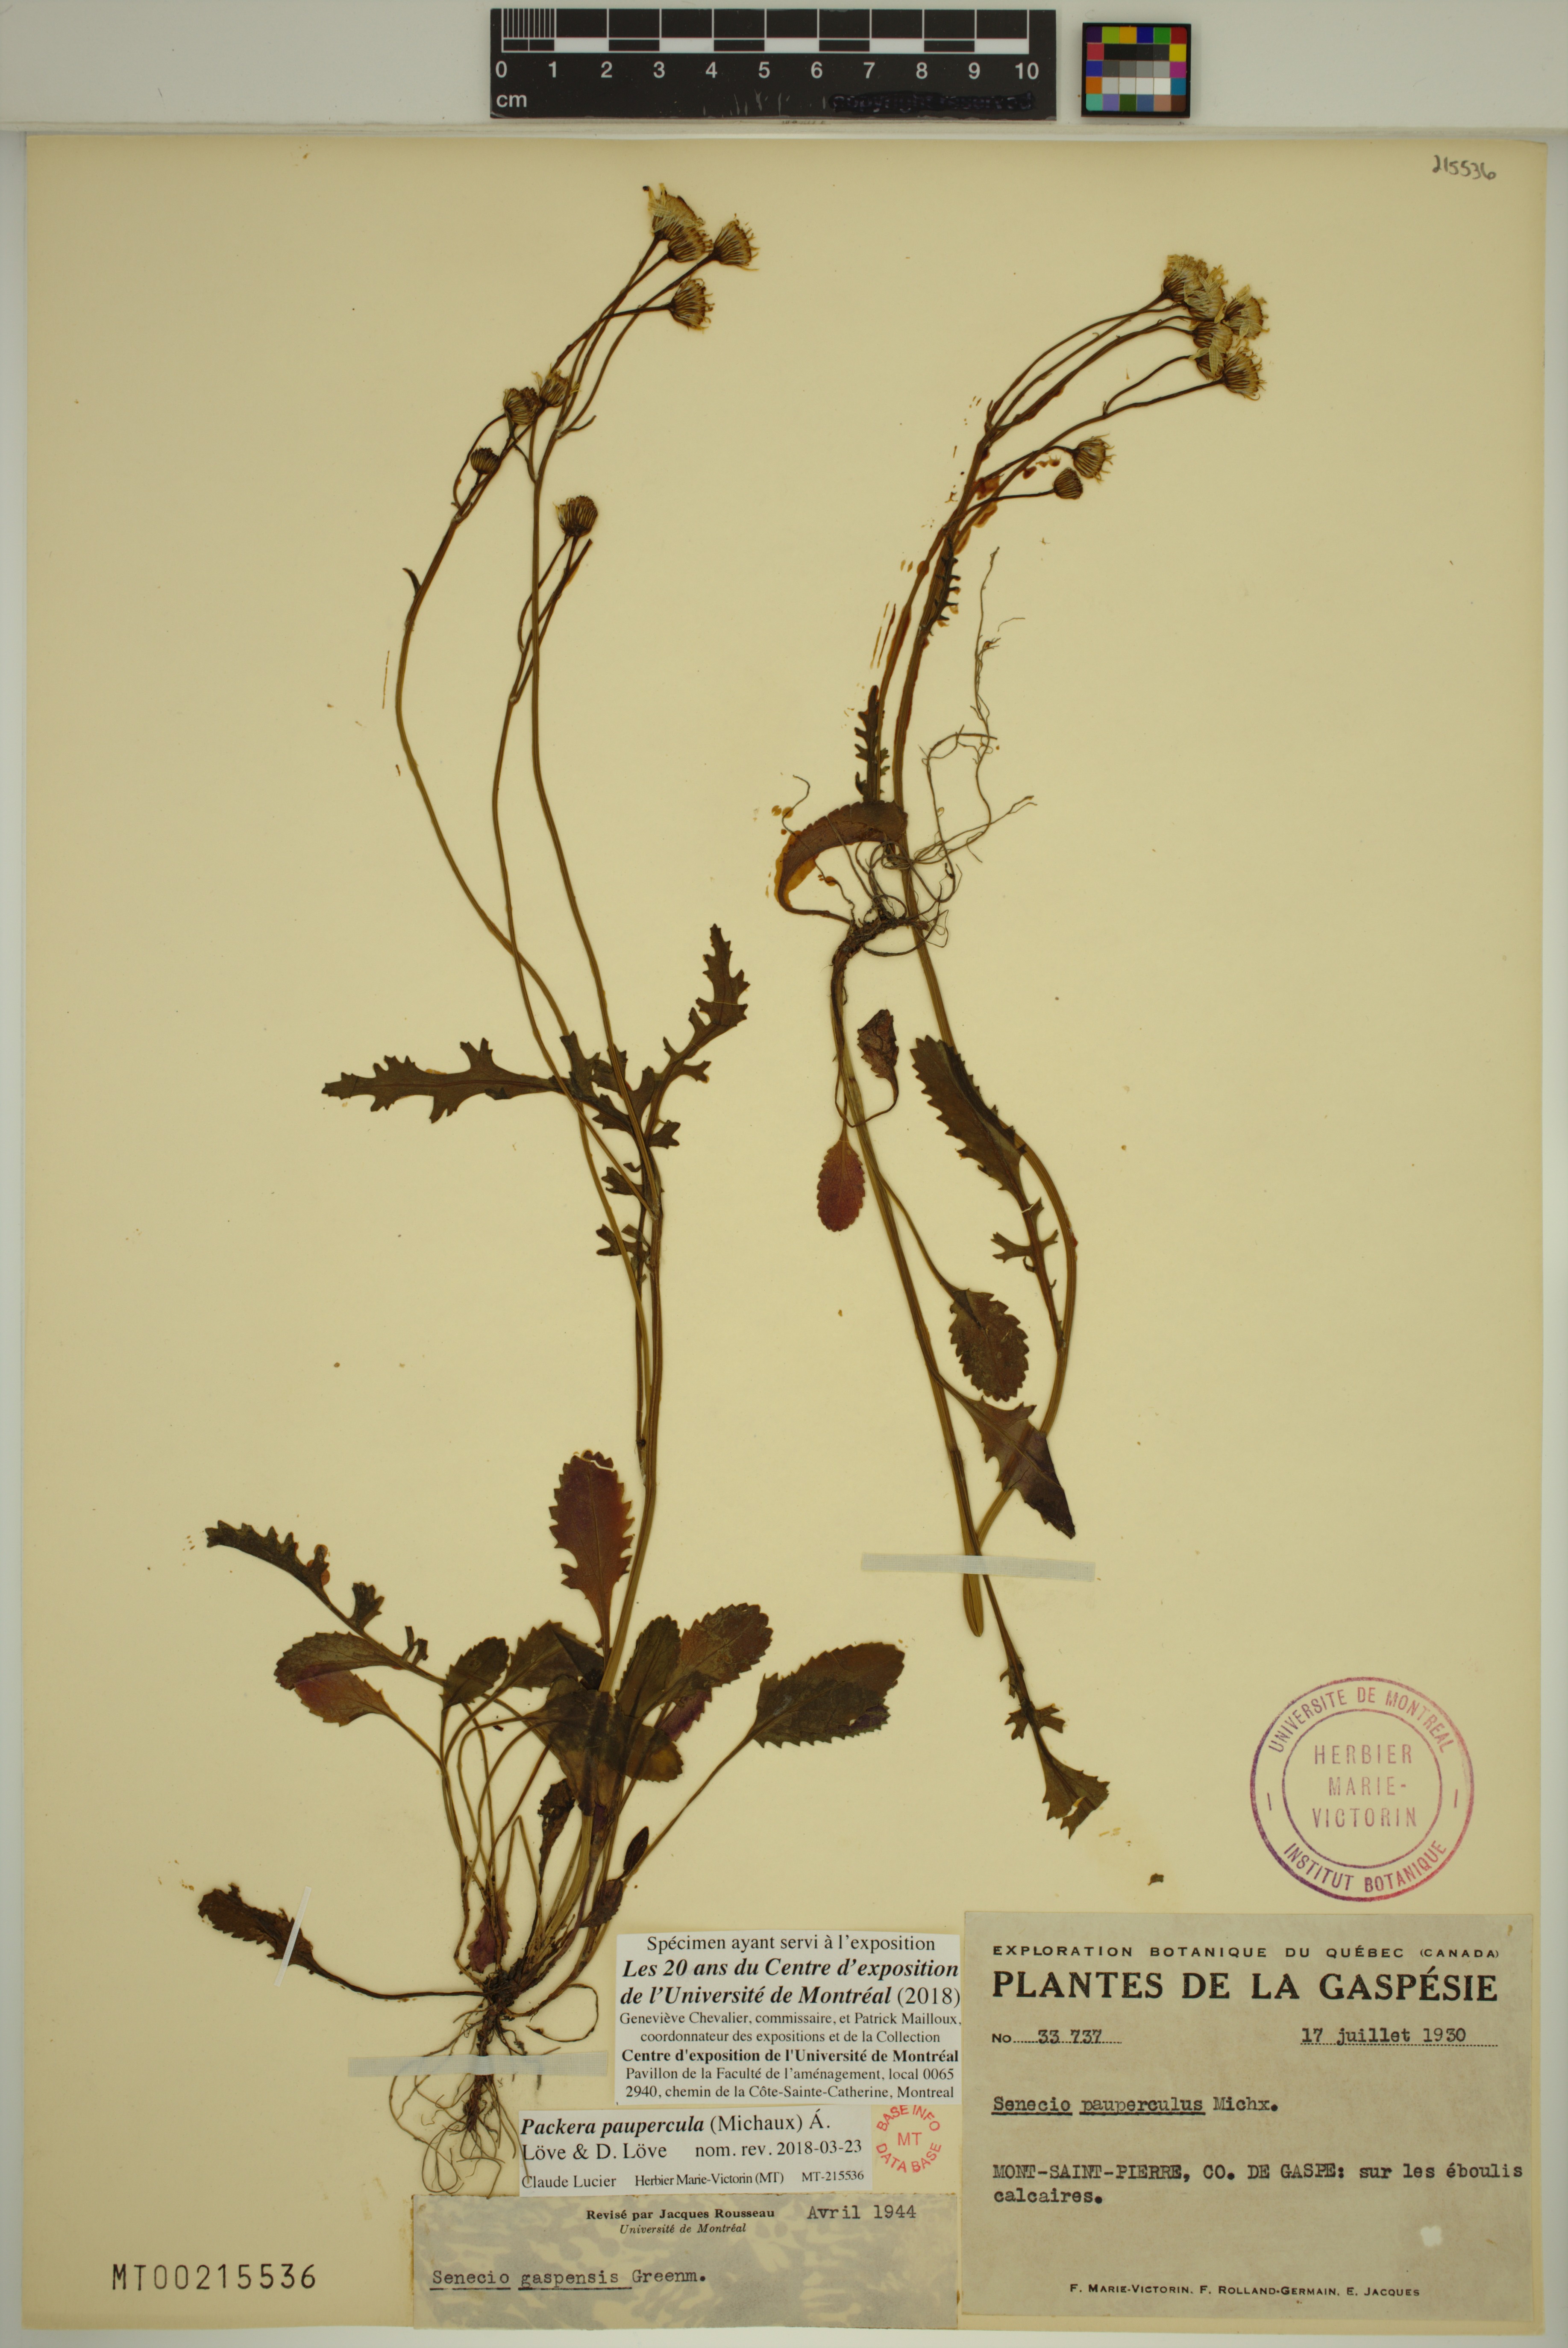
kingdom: Plantae
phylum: Tracheophyta
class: Magnoliopsida
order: Asterales
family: Asteraceae
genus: Packera
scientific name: Packera paupercula
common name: Balsam groundsel
